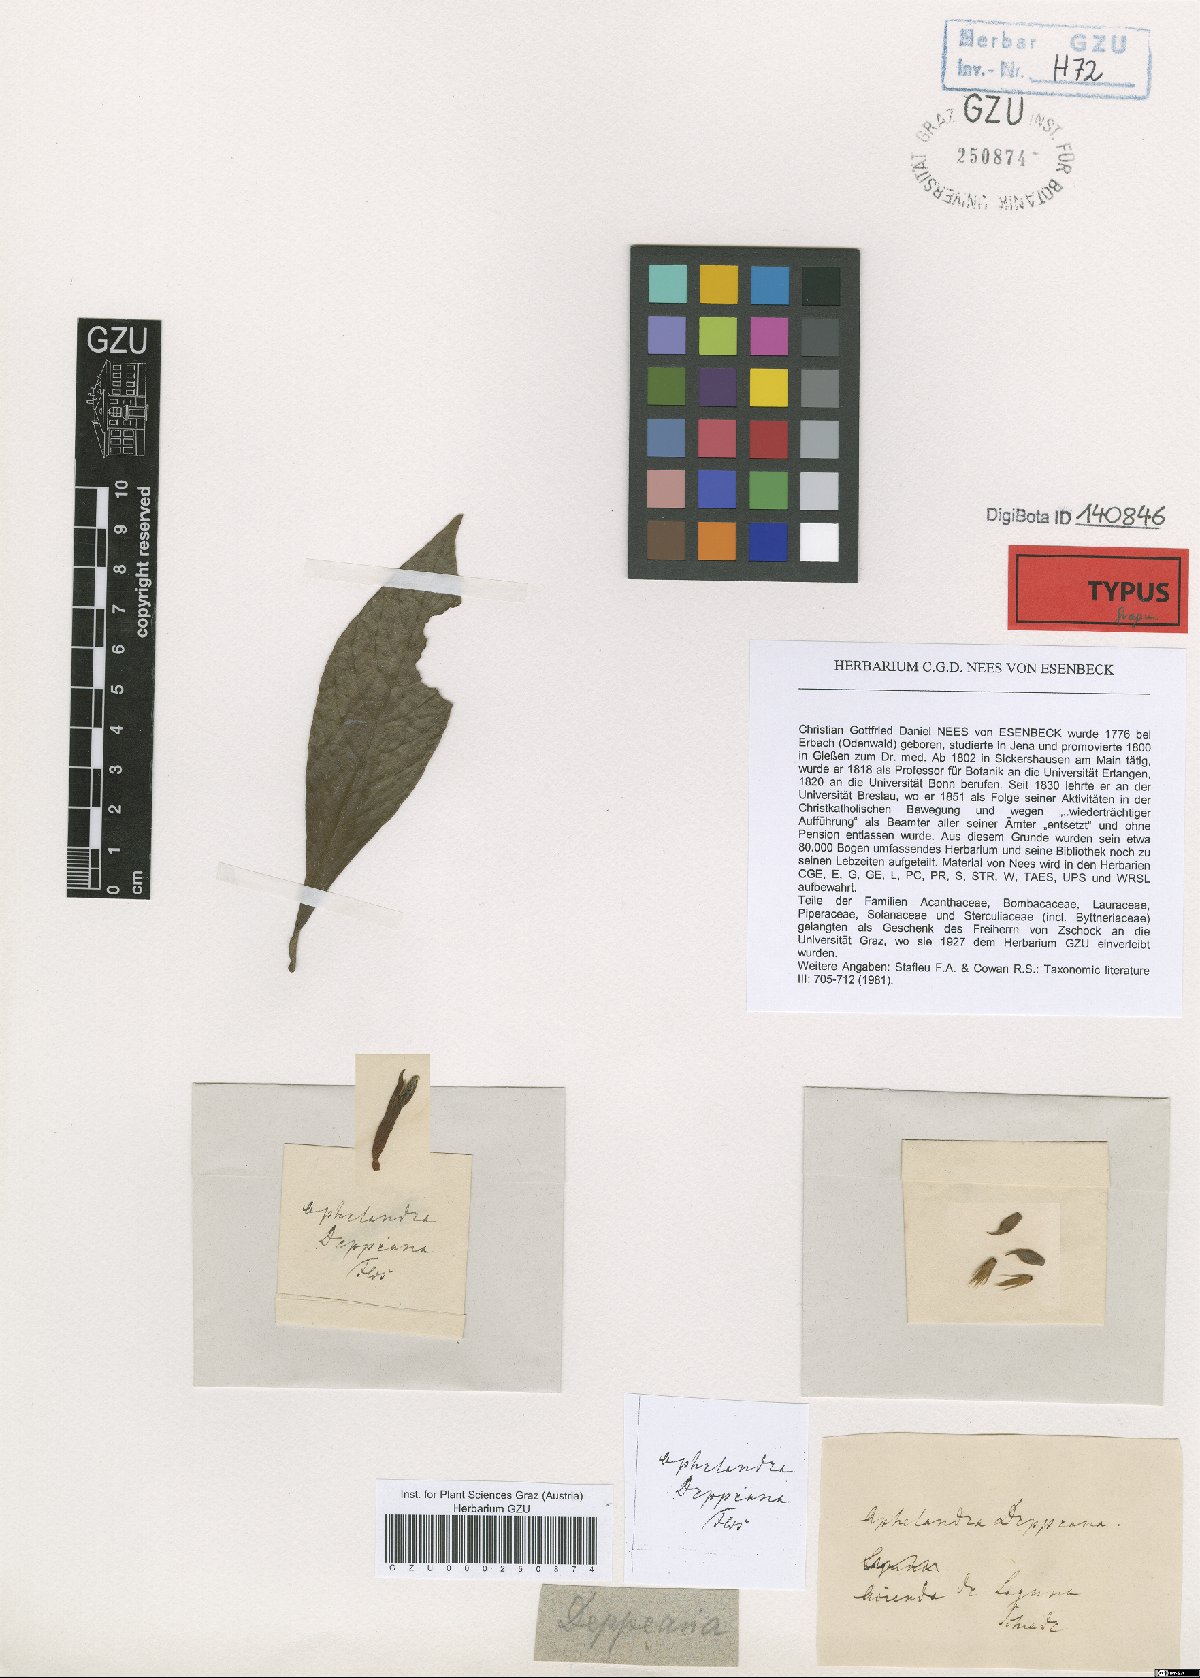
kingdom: Plantae
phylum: Tracheophyta
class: Magnoliopsida
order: Lamiales
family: Acanthaceae
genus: Aphelandra
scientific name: Aphelandra scabra
